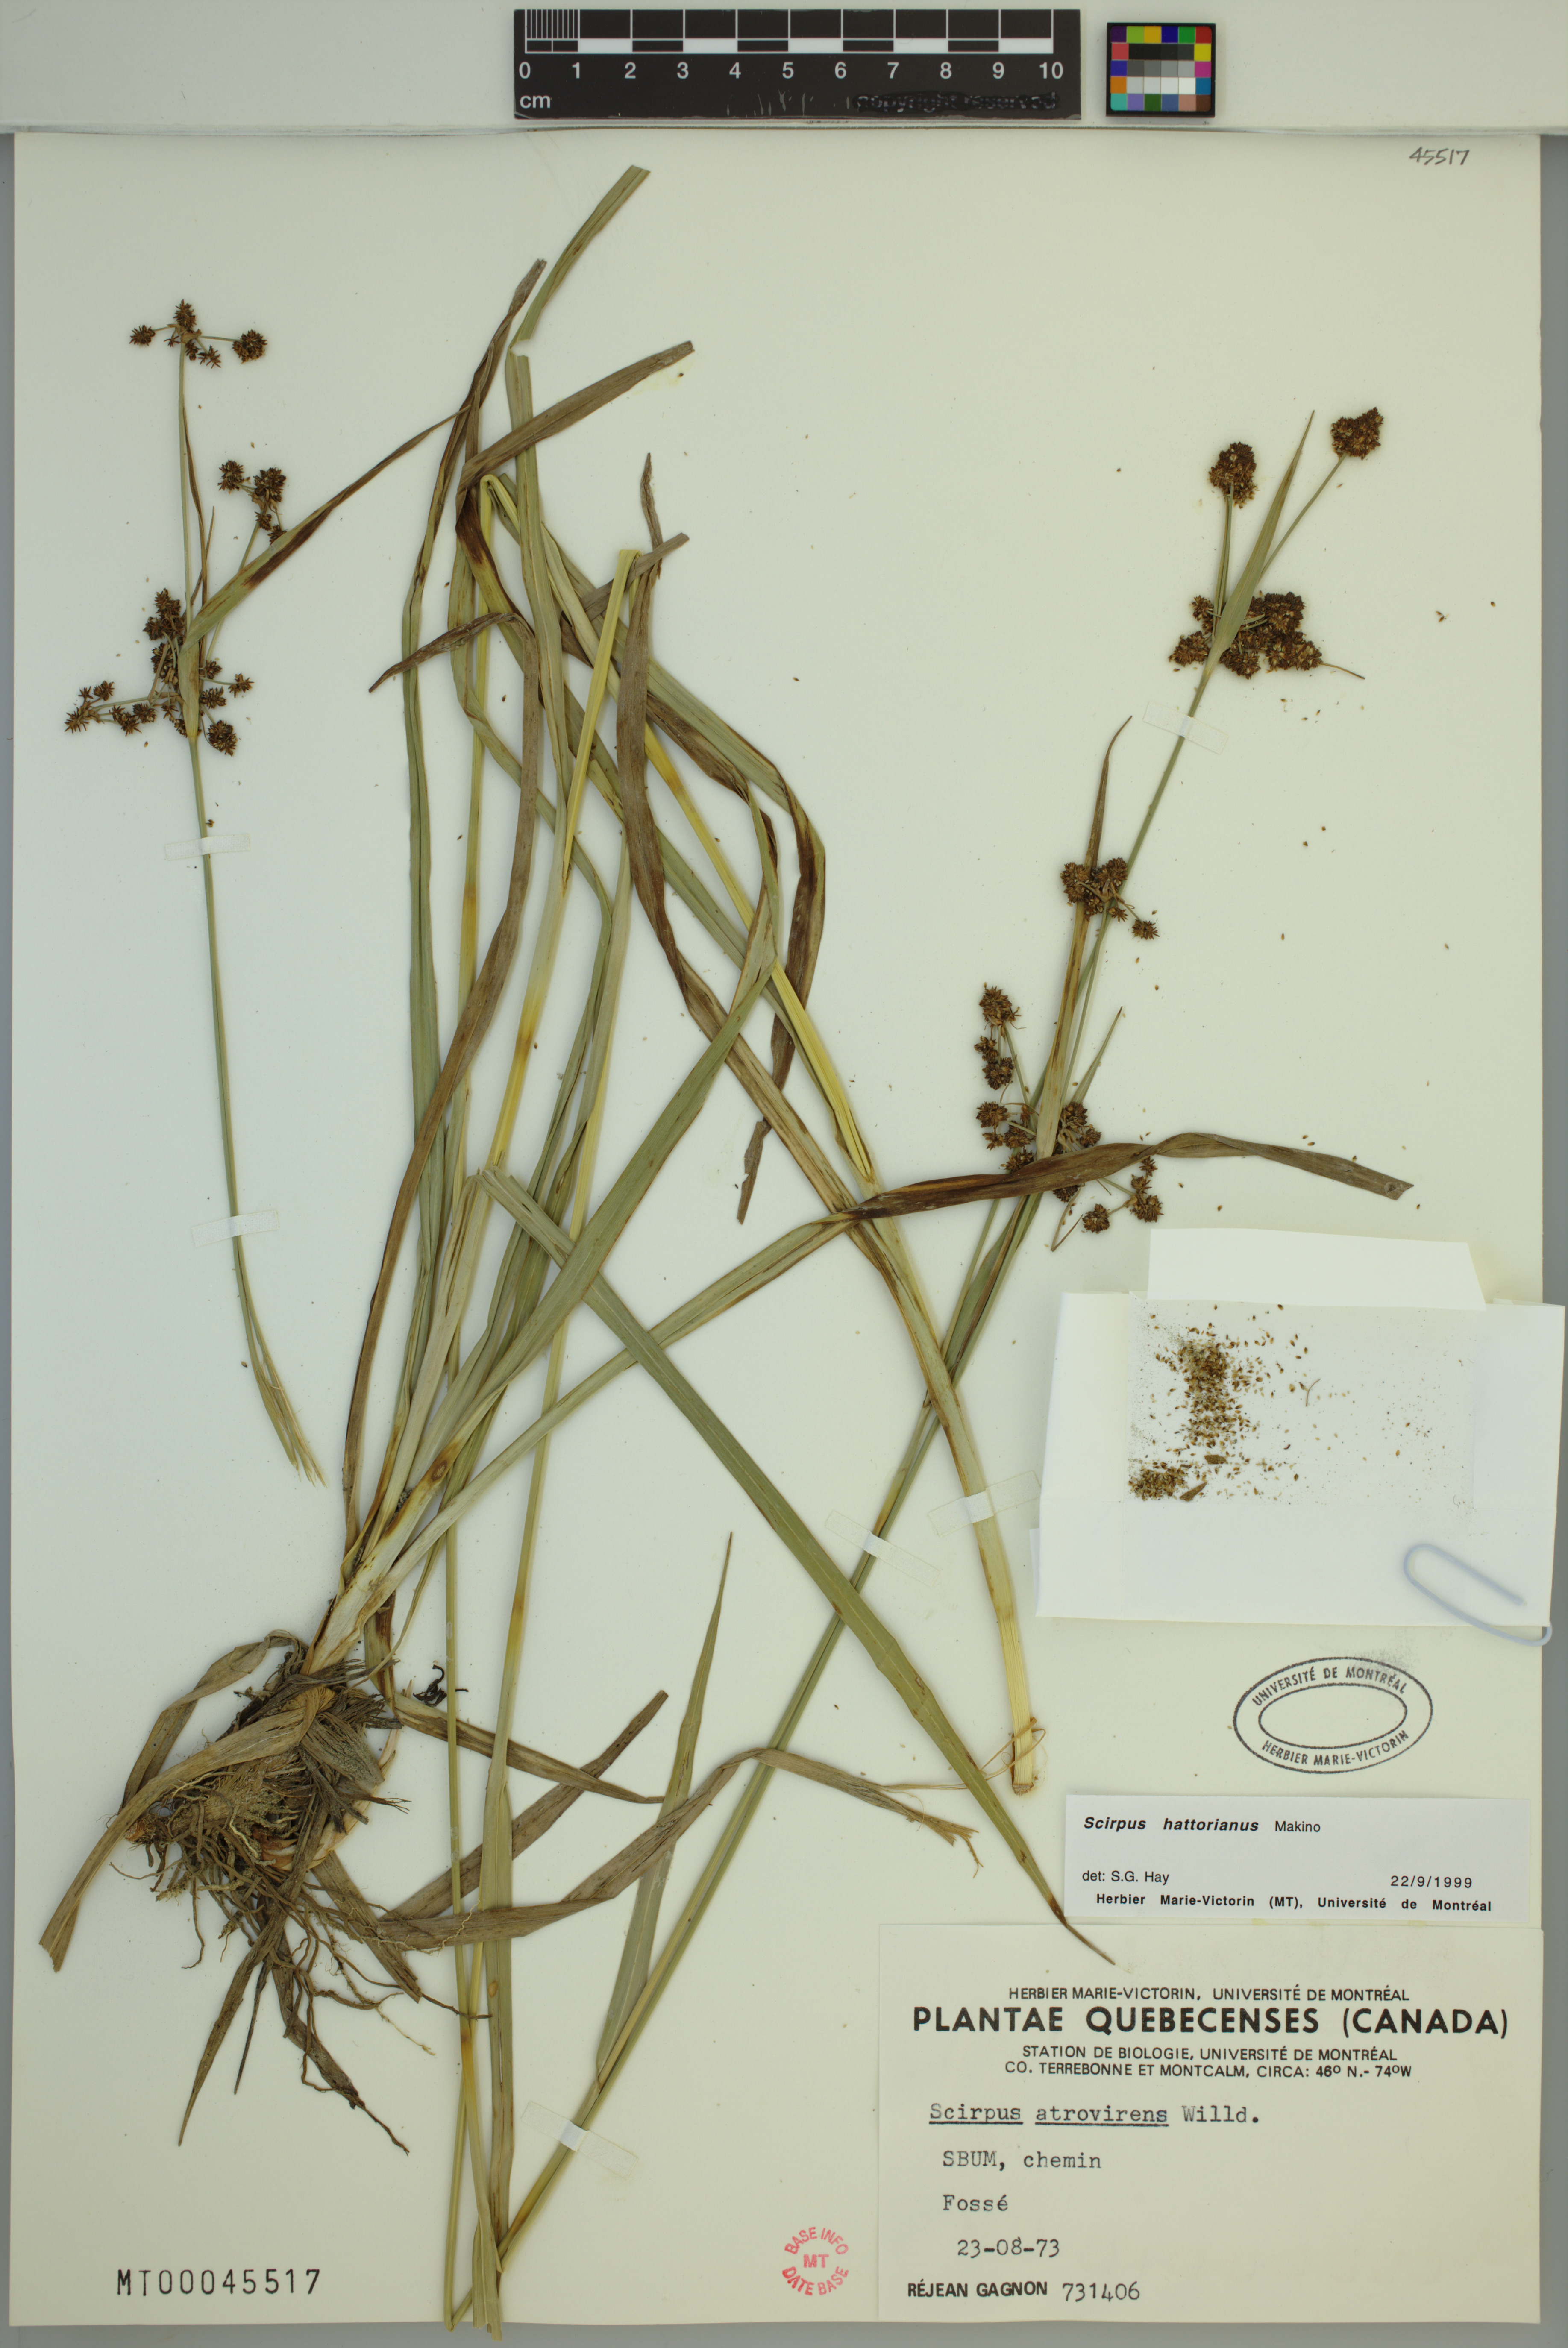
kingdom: Plantae
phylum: Tracheophyta
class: Liliopsida
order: Poales
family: Cyperaceae
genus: Scirpus
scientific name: Scirpus hattorianus
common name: Early dark-green bulrush
